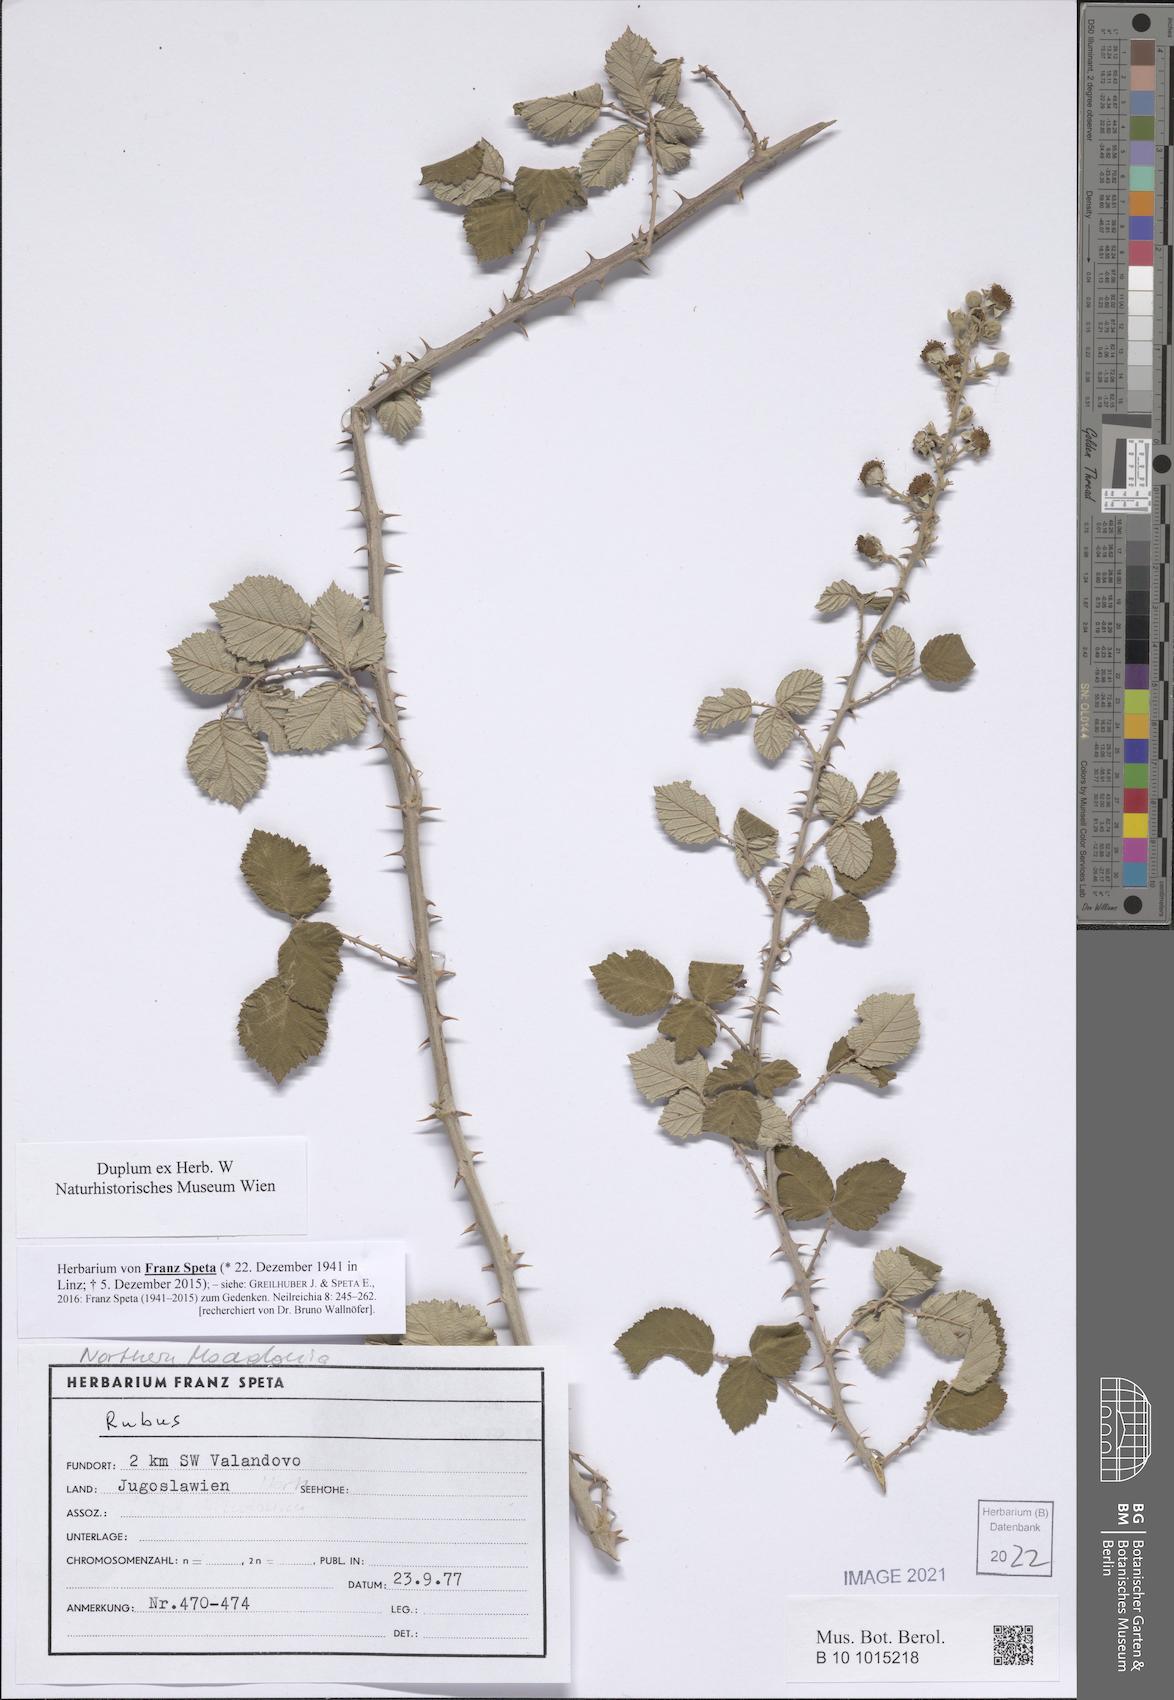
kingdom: Plantae
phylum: Tracheophyta
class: Magnoliopsida
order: Rosales
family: Rosaceae
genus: Rubus
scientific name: Rubus
